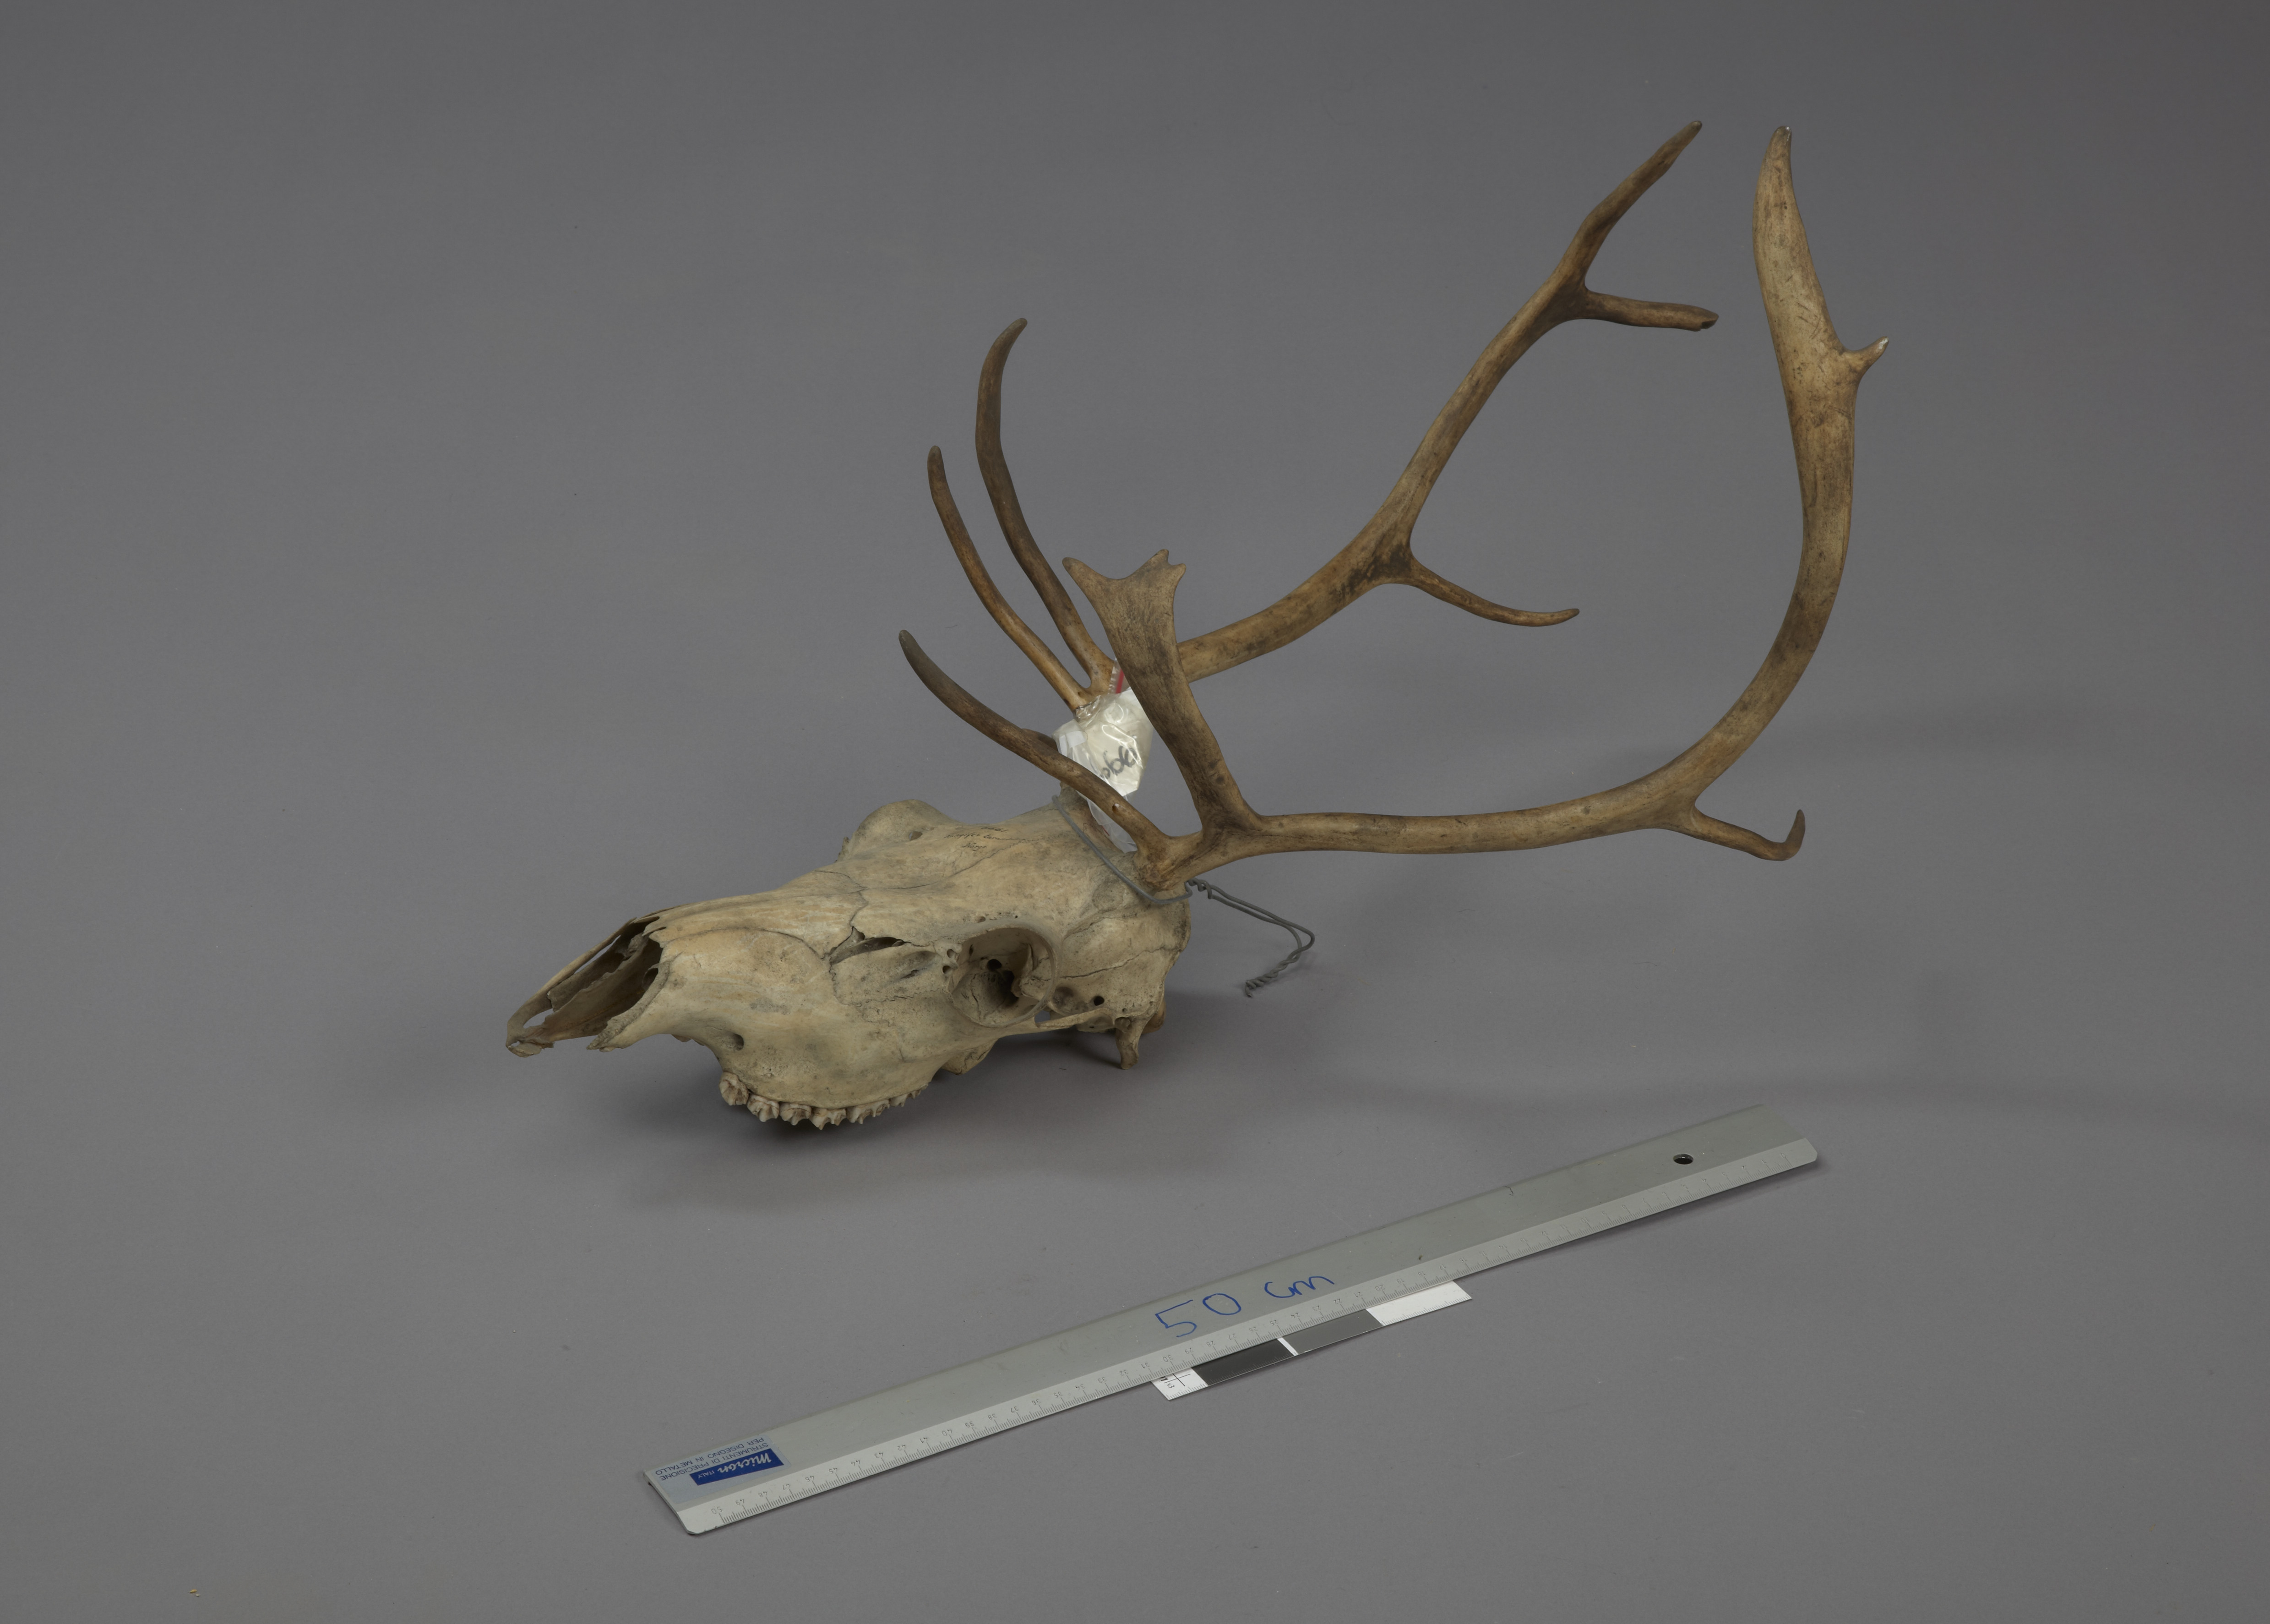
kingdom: Animalia
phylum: Chordata
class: Mammalia
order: Artiodactyla
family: Cervidae
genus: Rangifer
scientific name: Rangifer tarandus
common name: Reindeer
